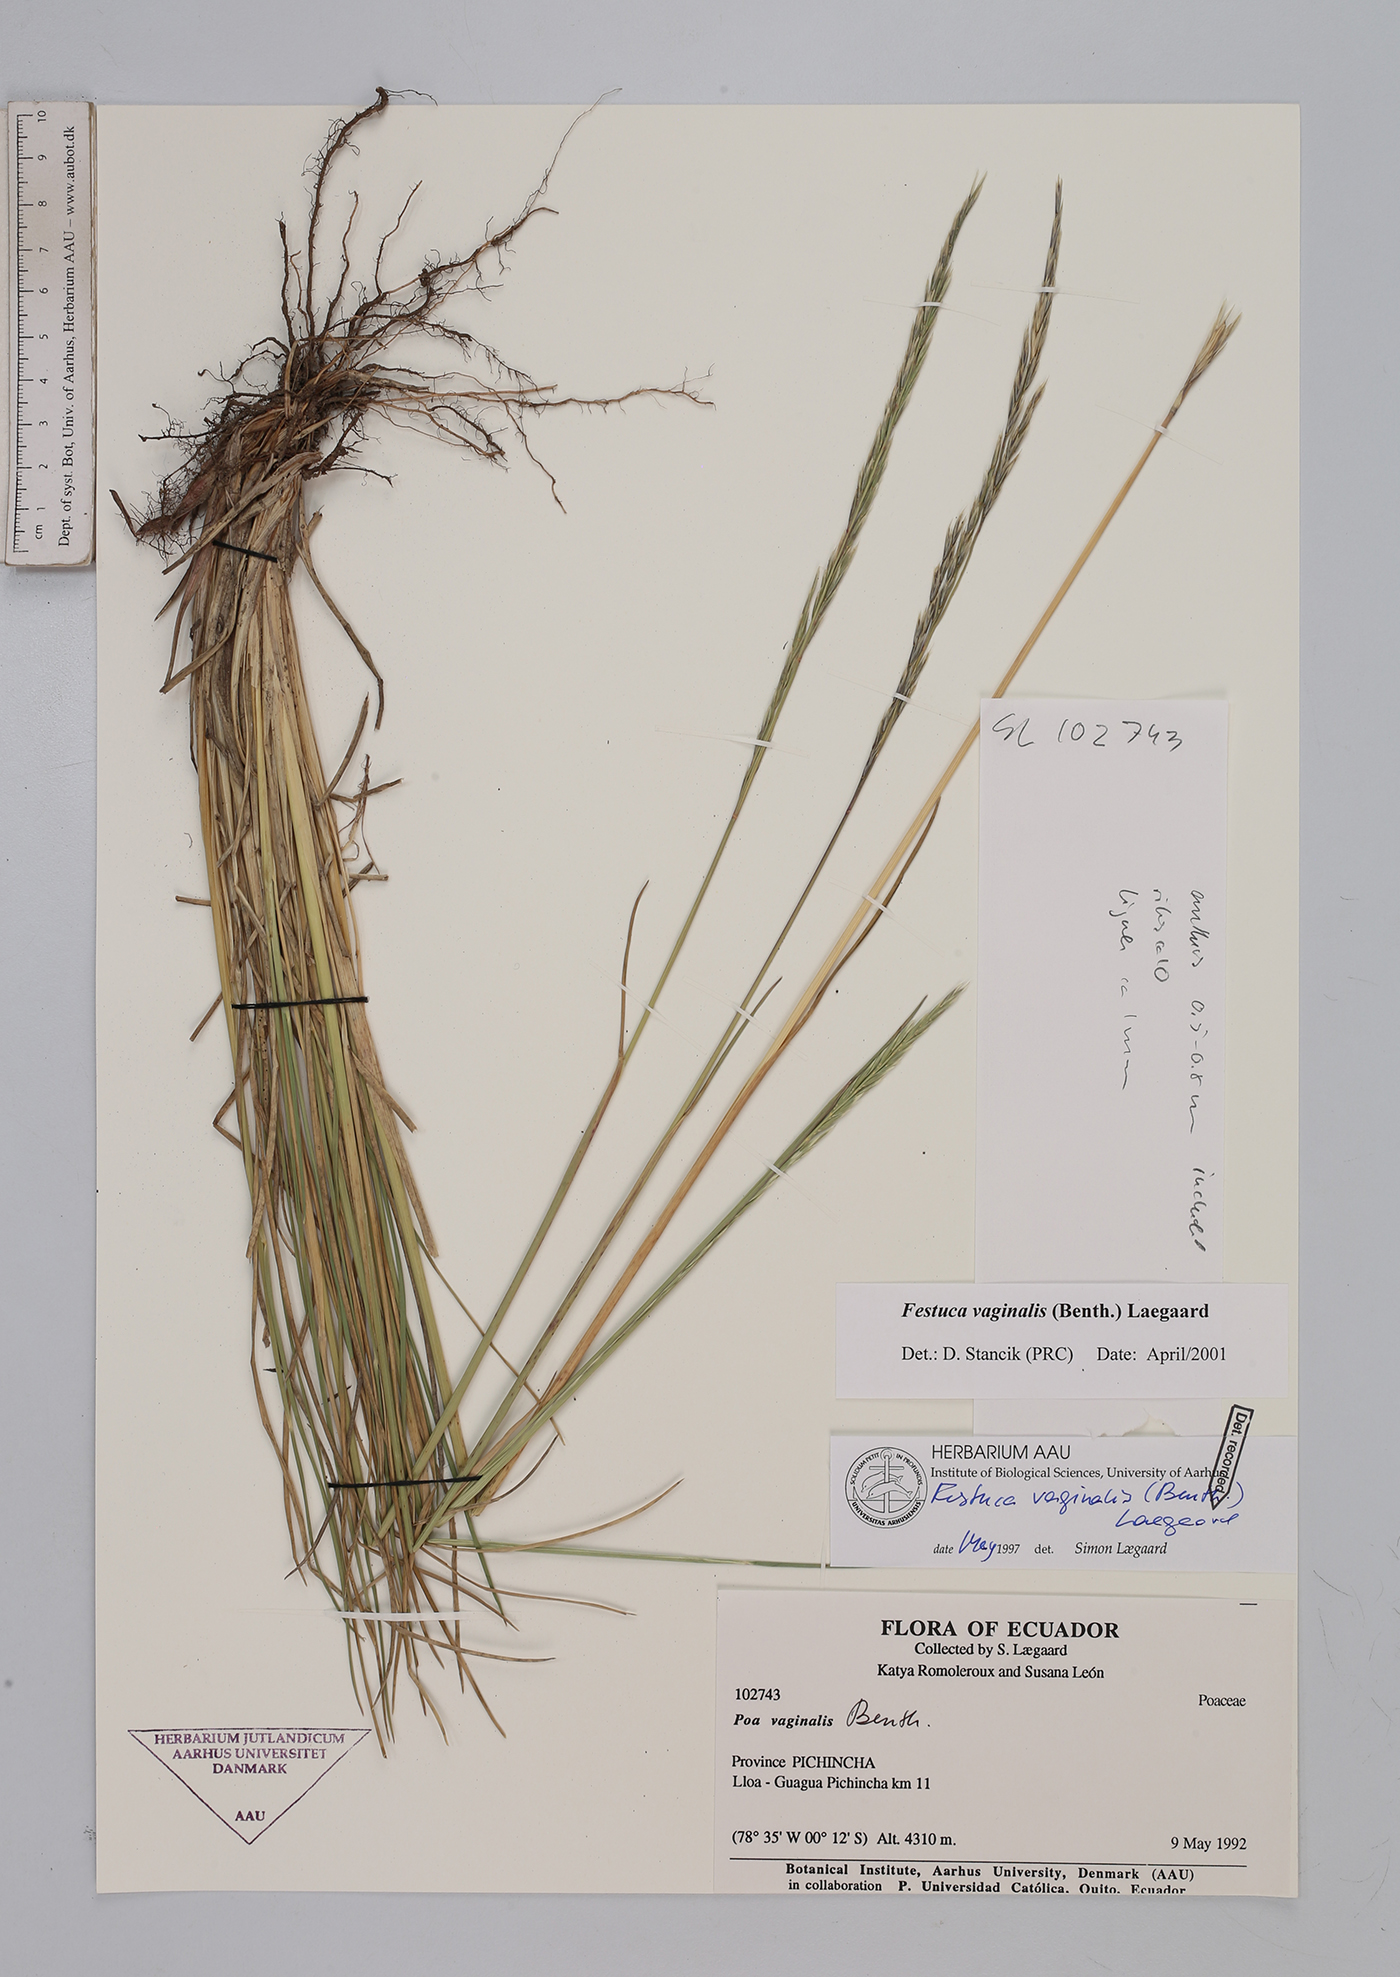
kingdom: Plantae
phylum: Tracheophyta
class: Liliopsida
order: Poales
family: Poaceae
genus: Festuca
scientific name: Festuca vaginalis
